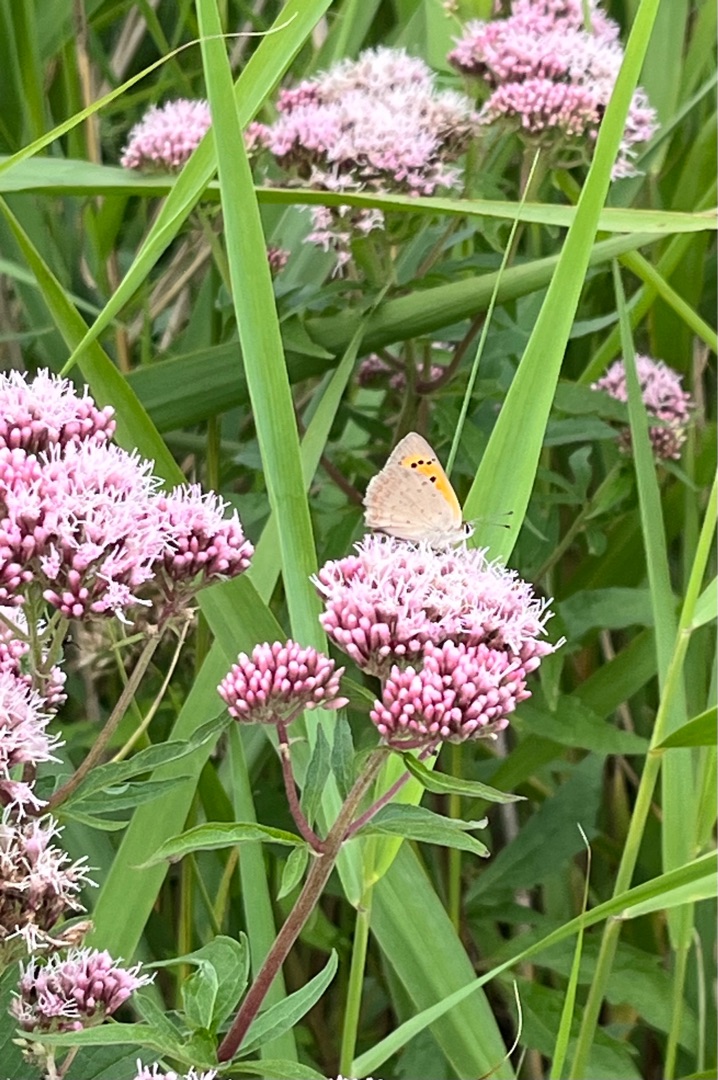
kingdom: Animalia
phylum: Arthropoda
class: Insecta
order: Lepidoptera
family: Lycaenidae
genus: Lycaena
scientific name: Lycaena phlaeas
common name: Lille ildfugl
